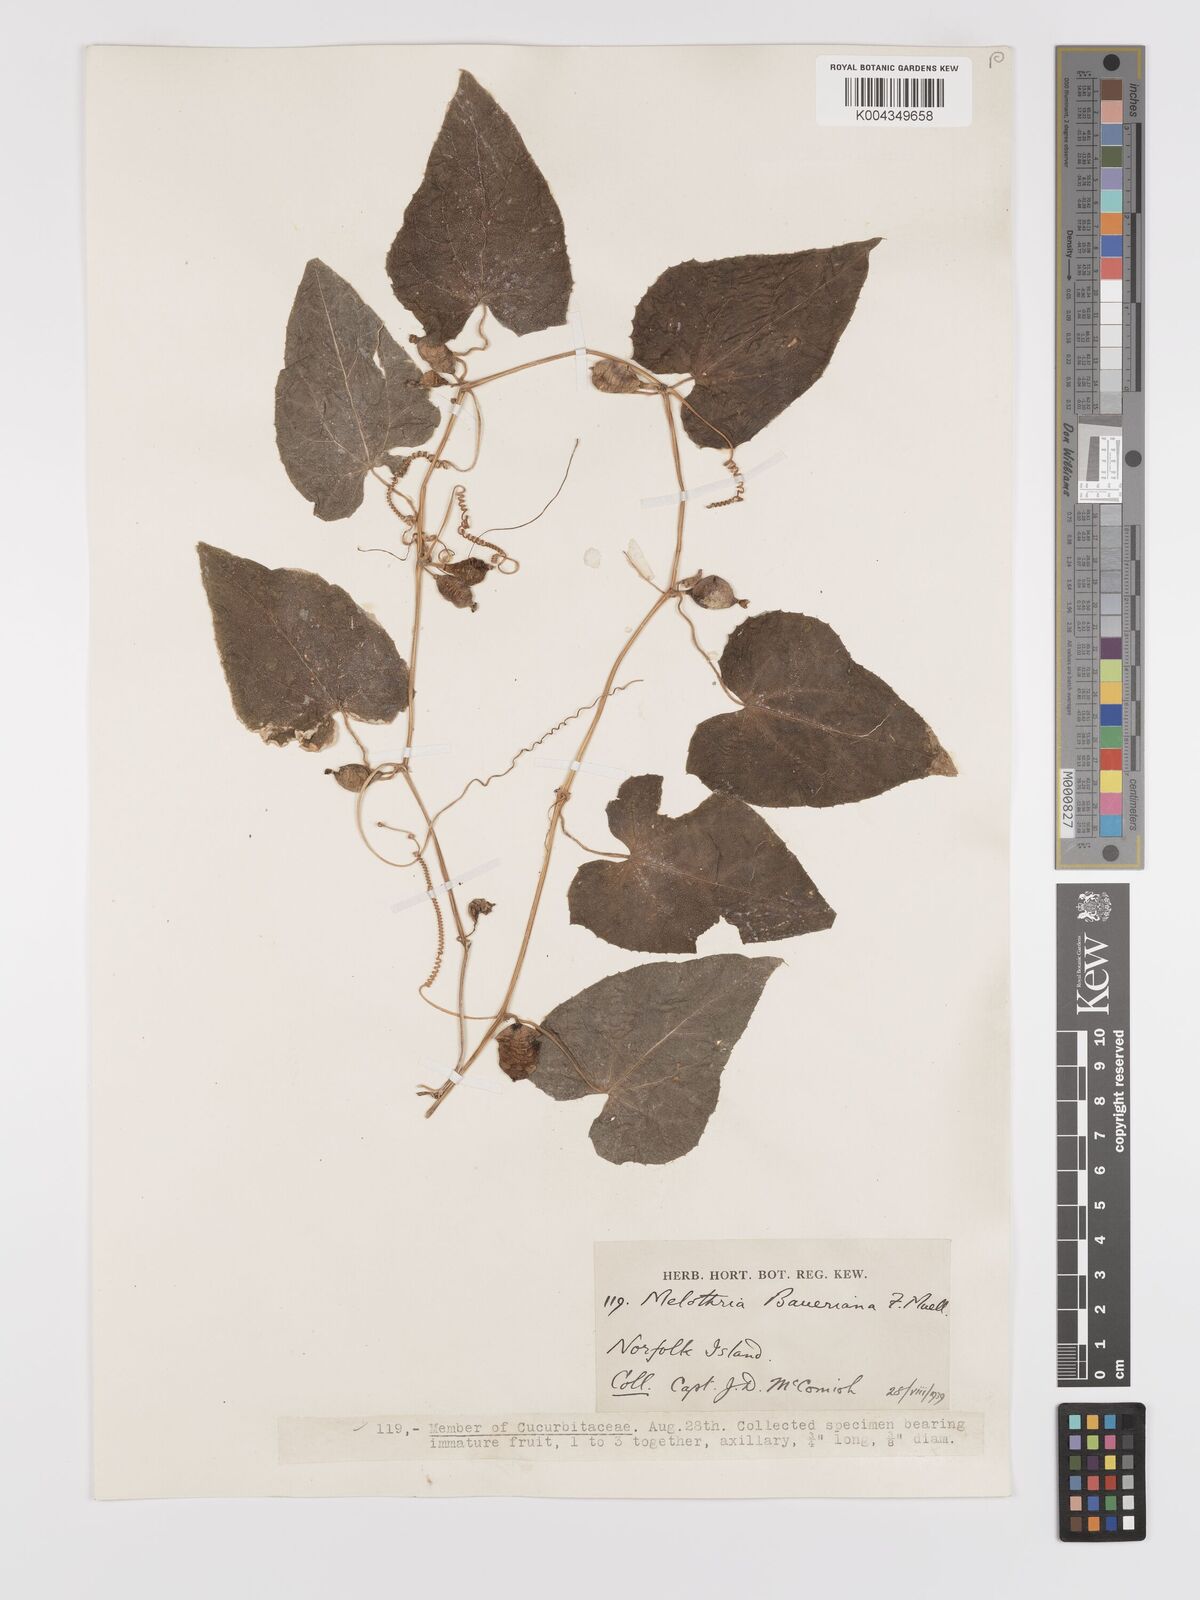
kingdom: Plantae
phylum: Tracheophyta
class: Magnoliopsida
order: Cucurbitales
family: Cucurbitaceae
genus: Zehneria
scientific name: Zehneria mucronata
